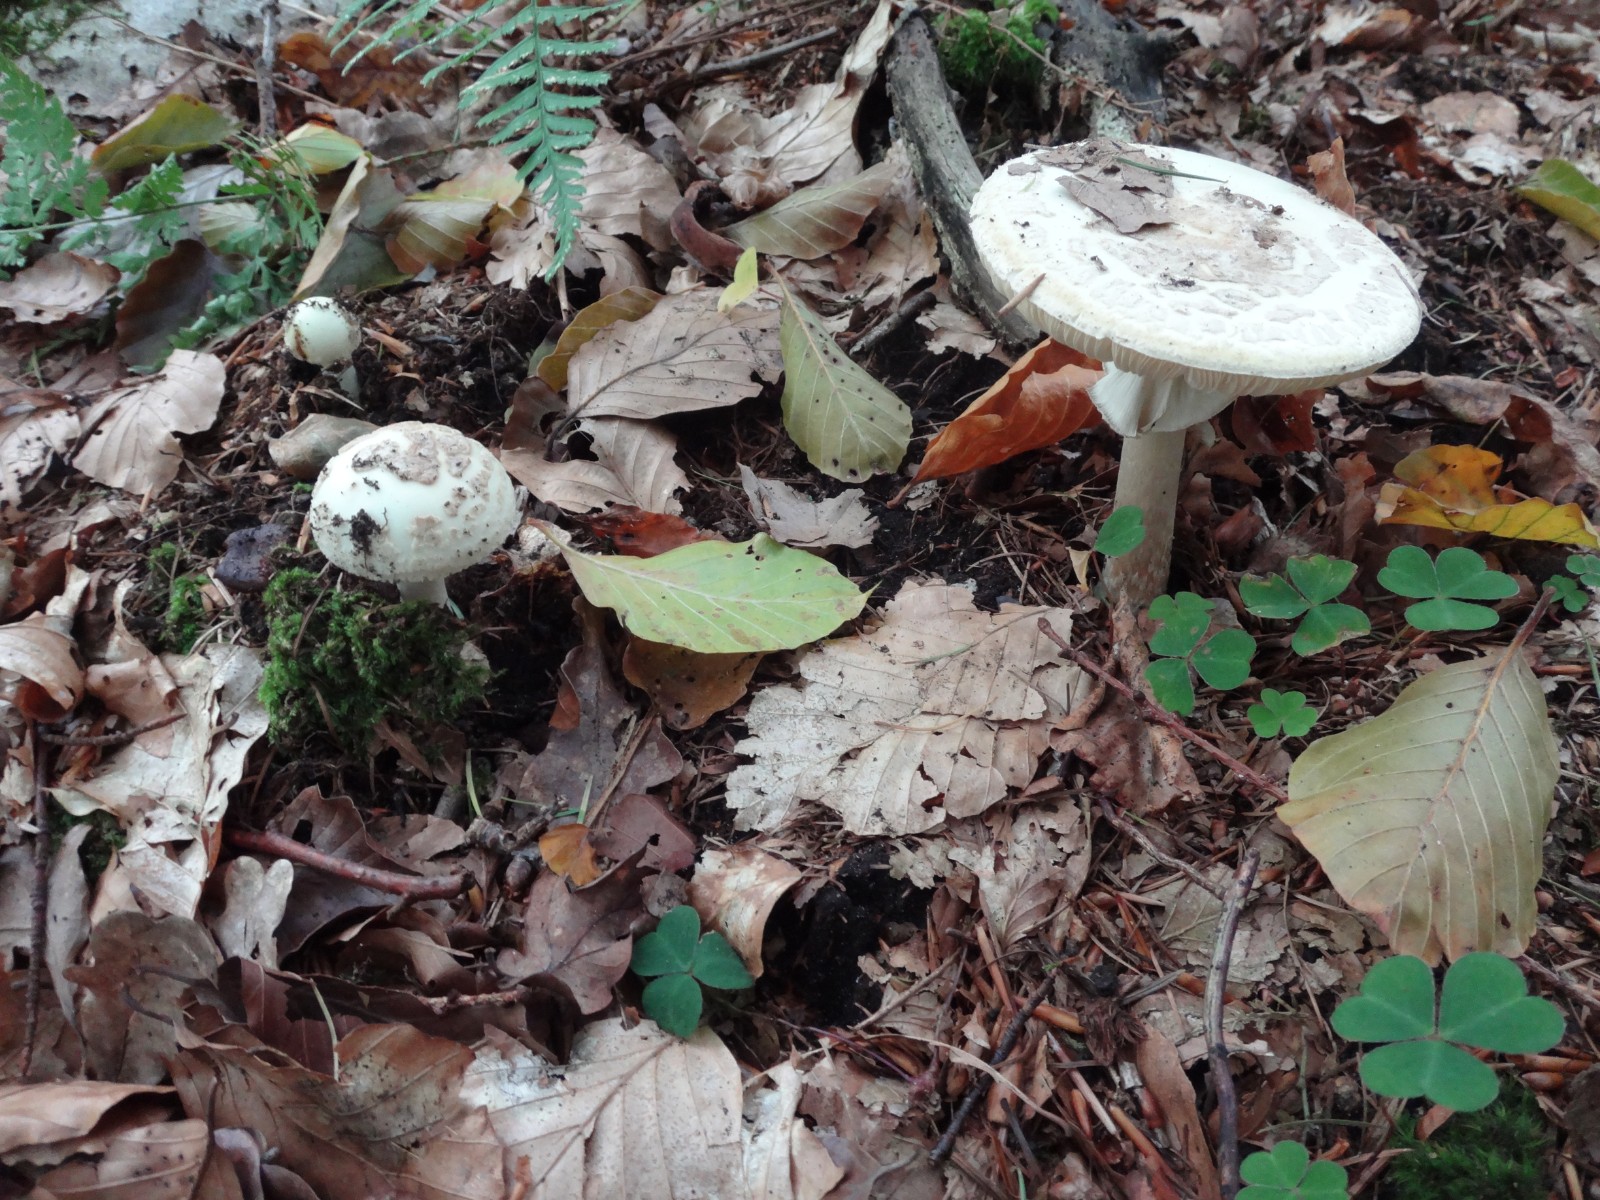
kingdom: Fungi
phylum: Basidiomycota
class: Agaricomycetes
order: Agaricales
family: Amanitaceae
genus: Amanita
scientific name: Amanita citrina
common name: kugleknoldet fluesvamp
